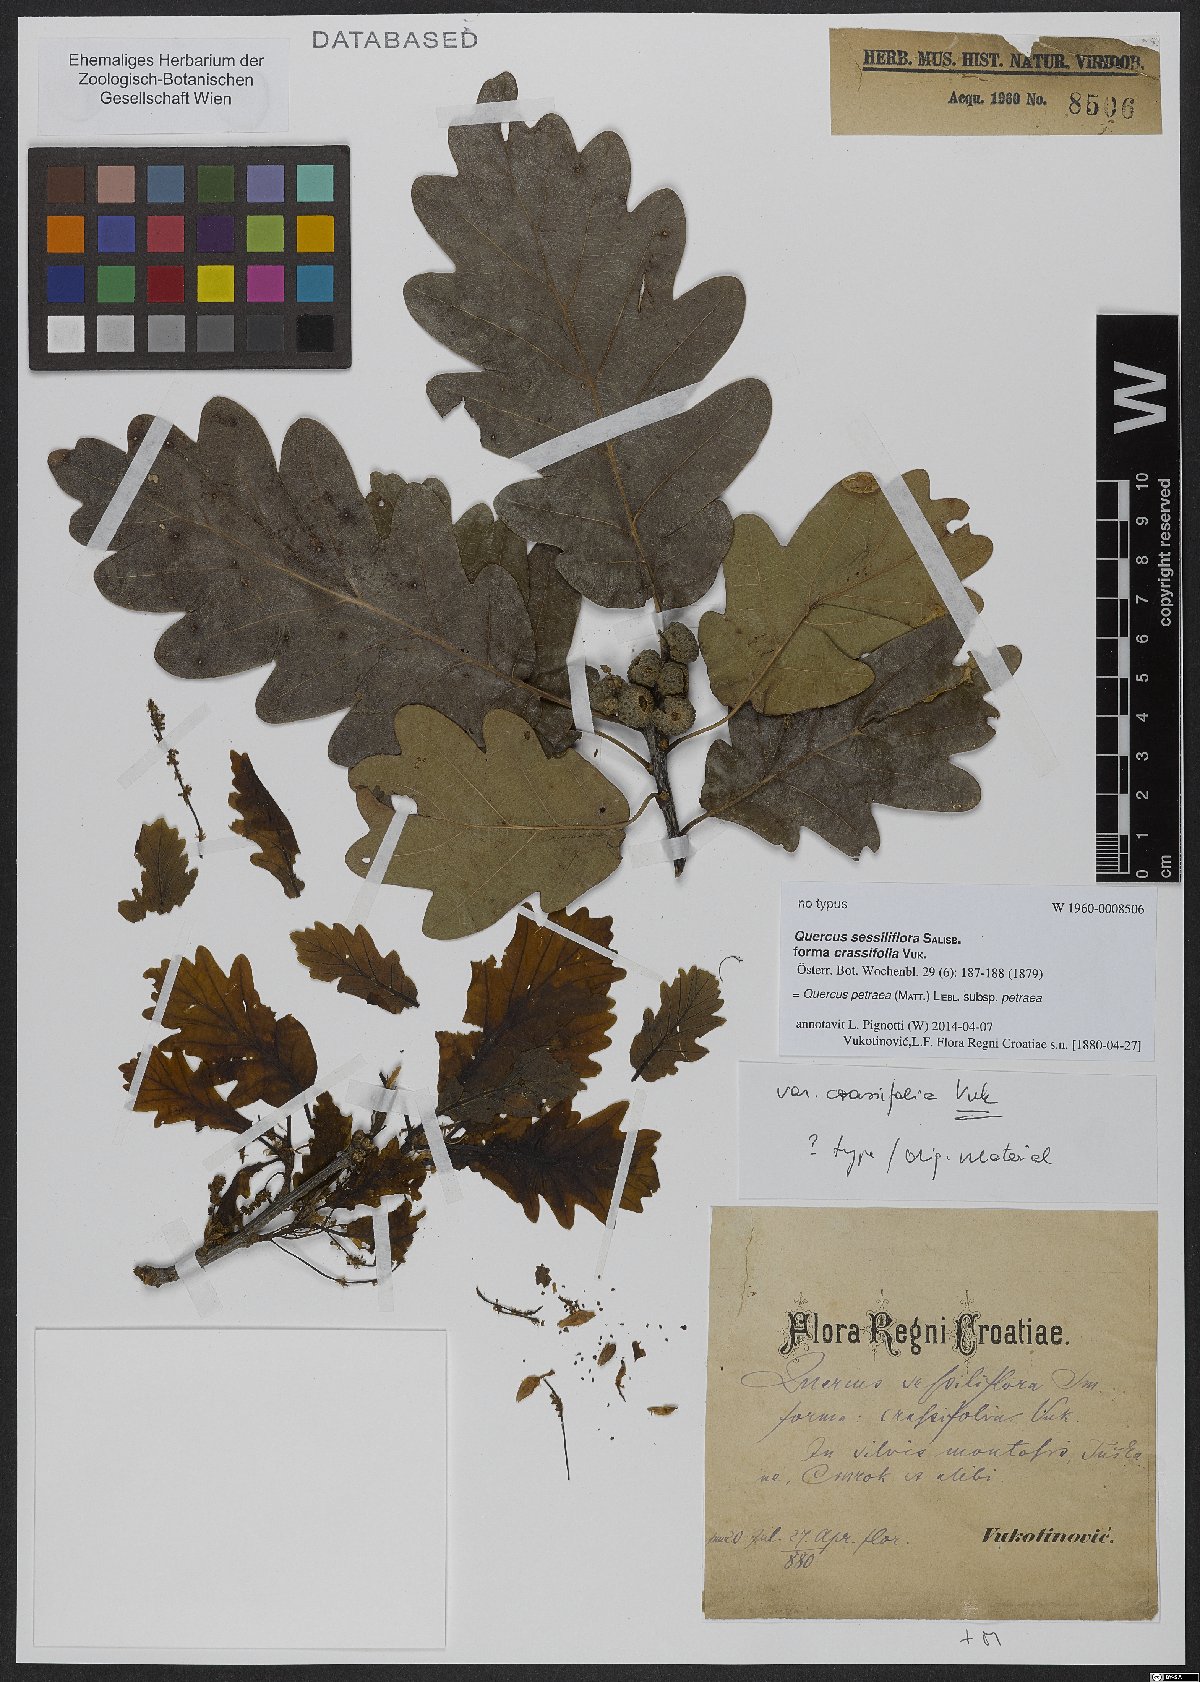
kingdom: Plantae
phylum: Tracheophyta
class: Magnoliopsida
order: Fagales
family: Fagaceae
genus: Quercus
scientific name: Quercus petraea
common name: Sessile oak
